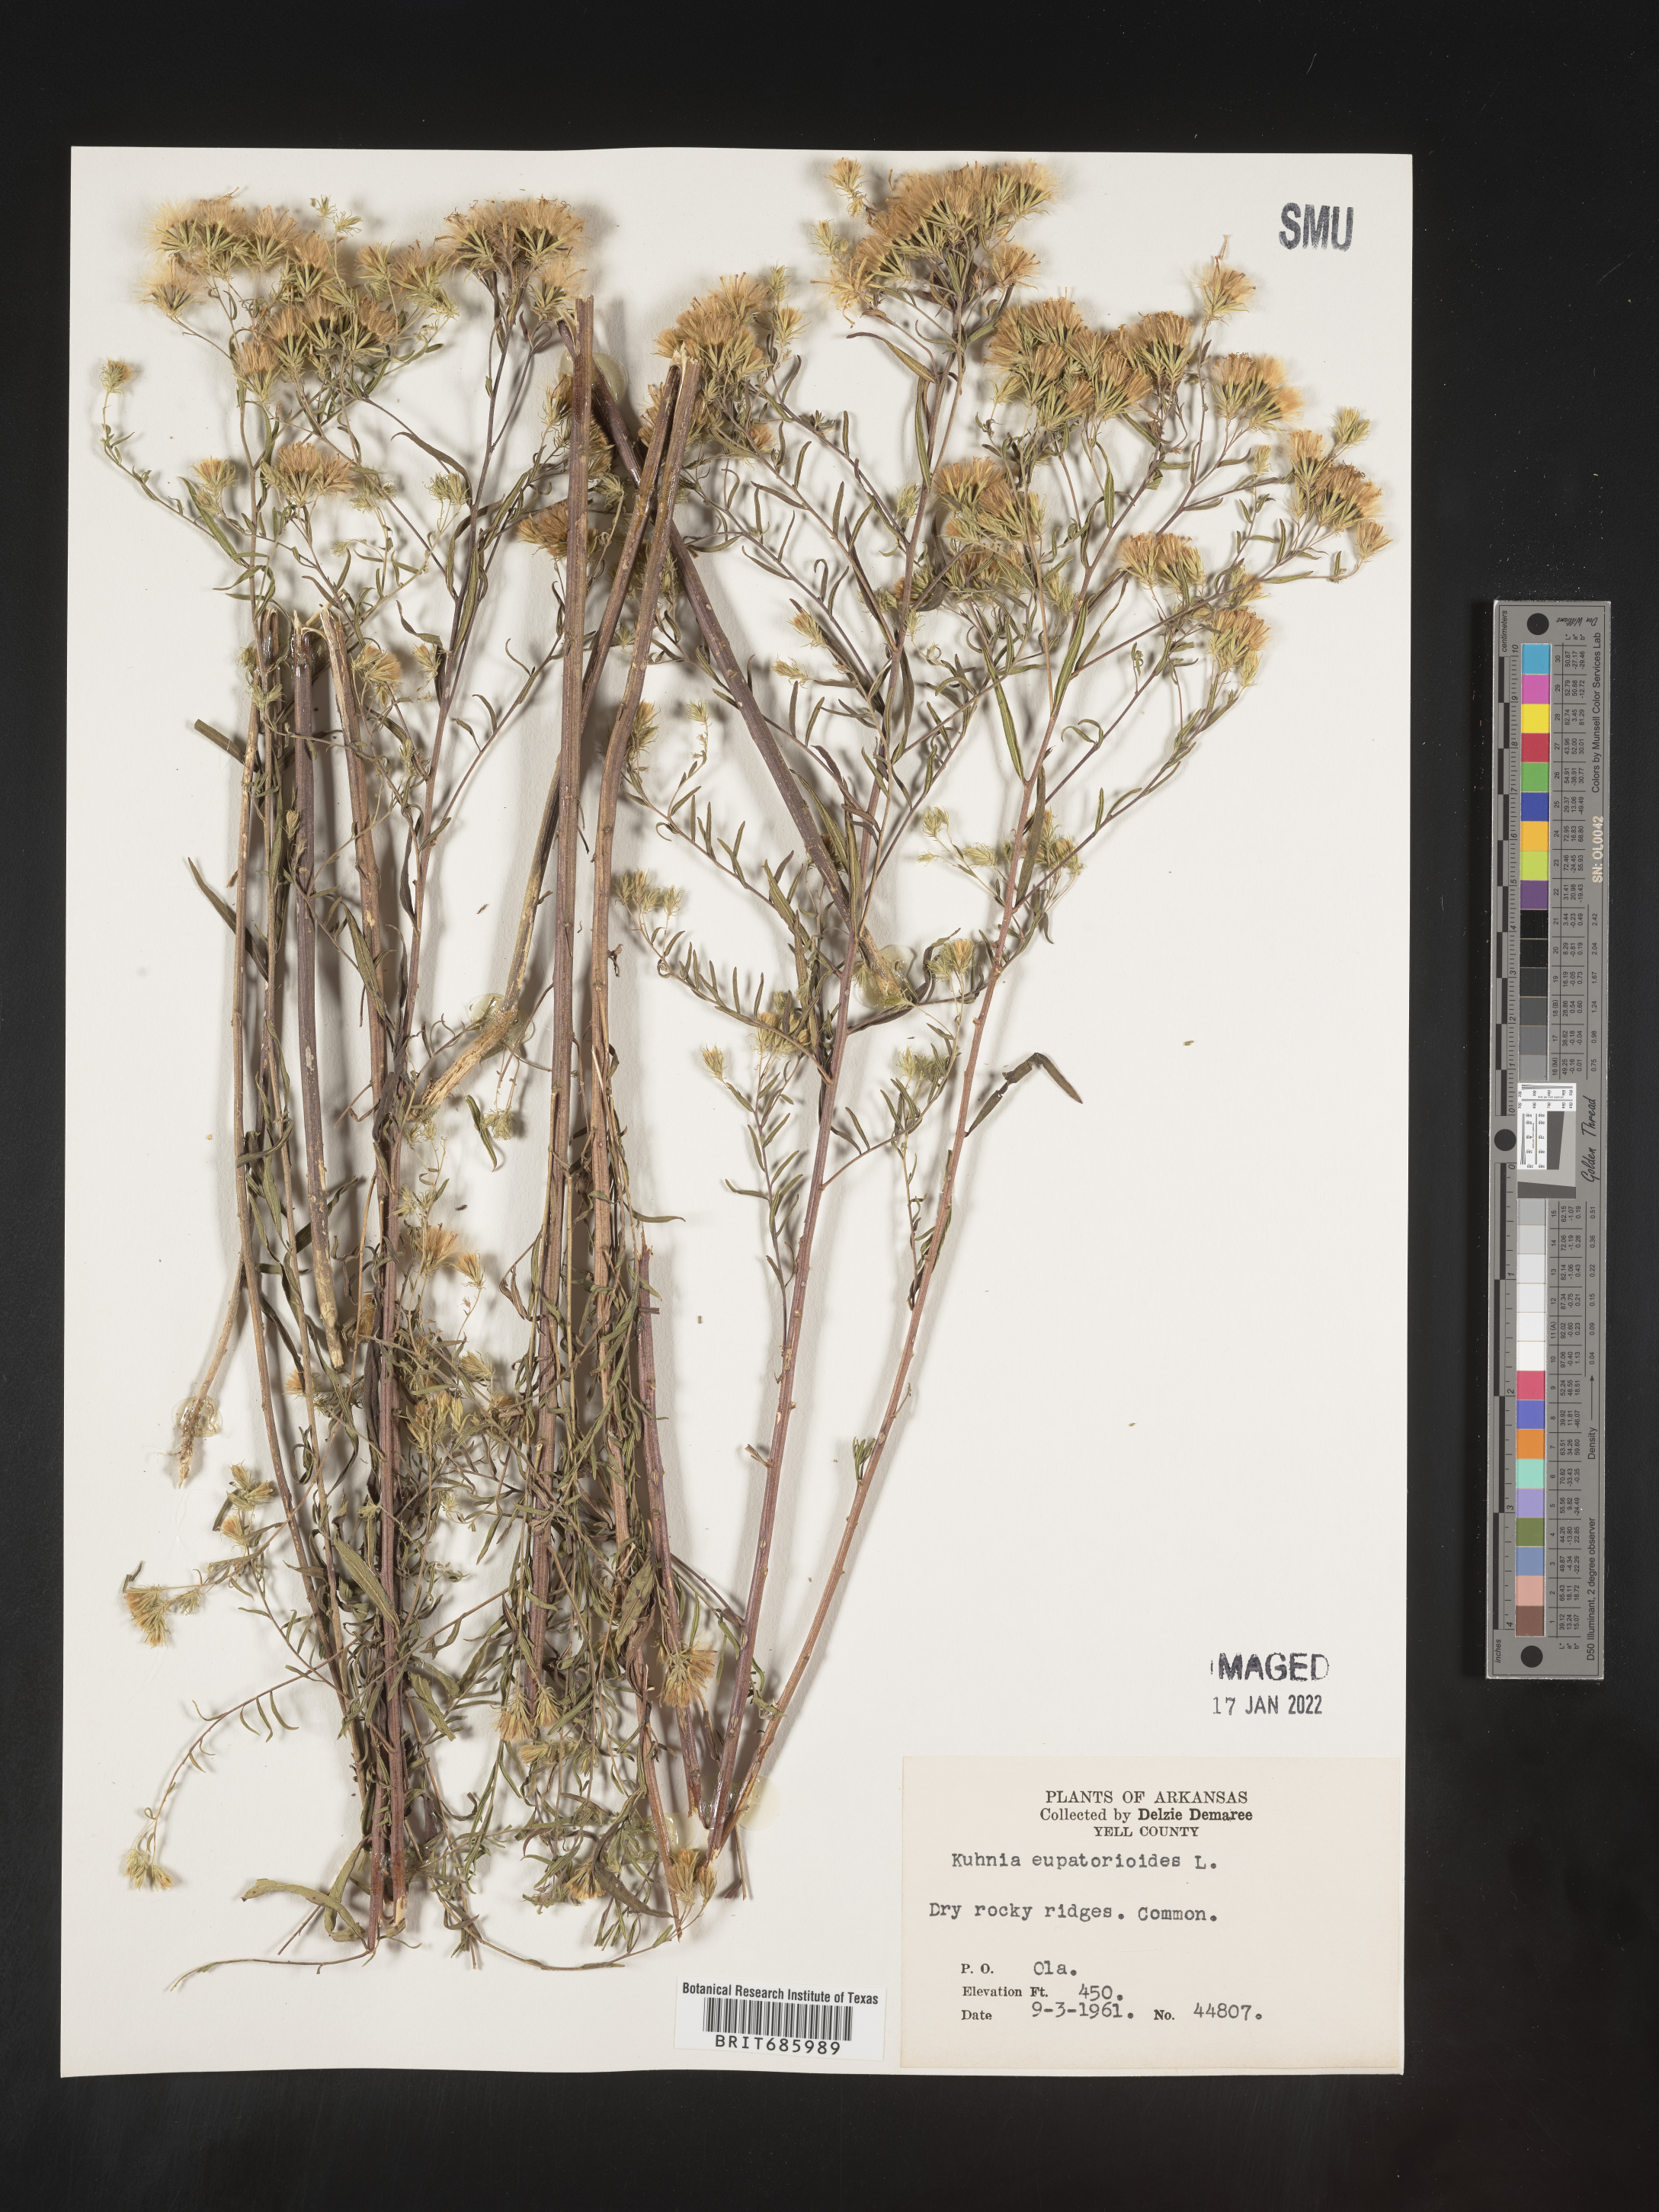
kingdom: Plantae
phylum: Tracheophyta
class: Magnoliopsida
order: Asterales
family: Asteraceae
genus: Brickellia
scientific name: Brickellia eupatorioides
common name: False boneset
